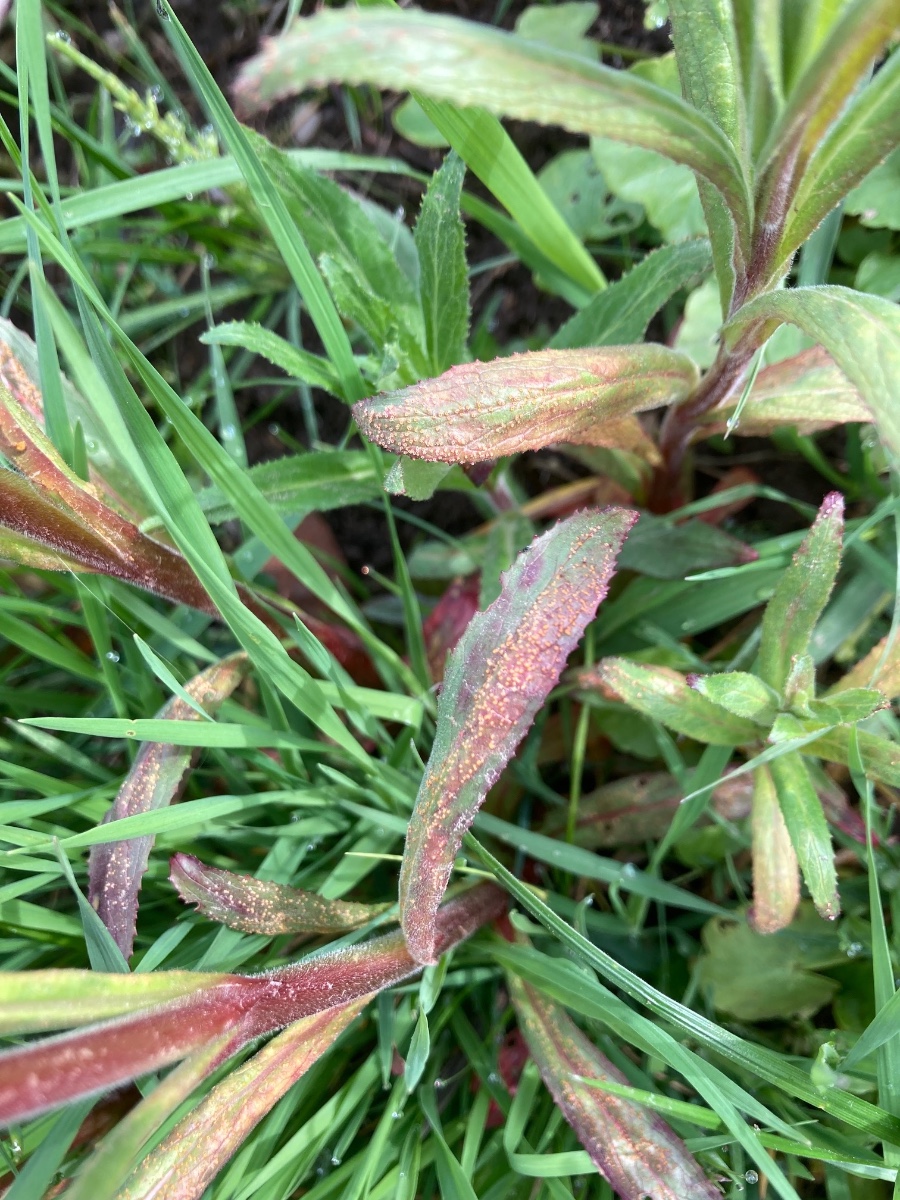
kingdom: Fungi
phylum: Basidiomycota
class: Pucciniomycetes
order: Pucciniales
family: Pucciniaceae
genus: Puccinia
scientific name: Puccinia pulverulenta
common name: dueurt-tvecellerust
